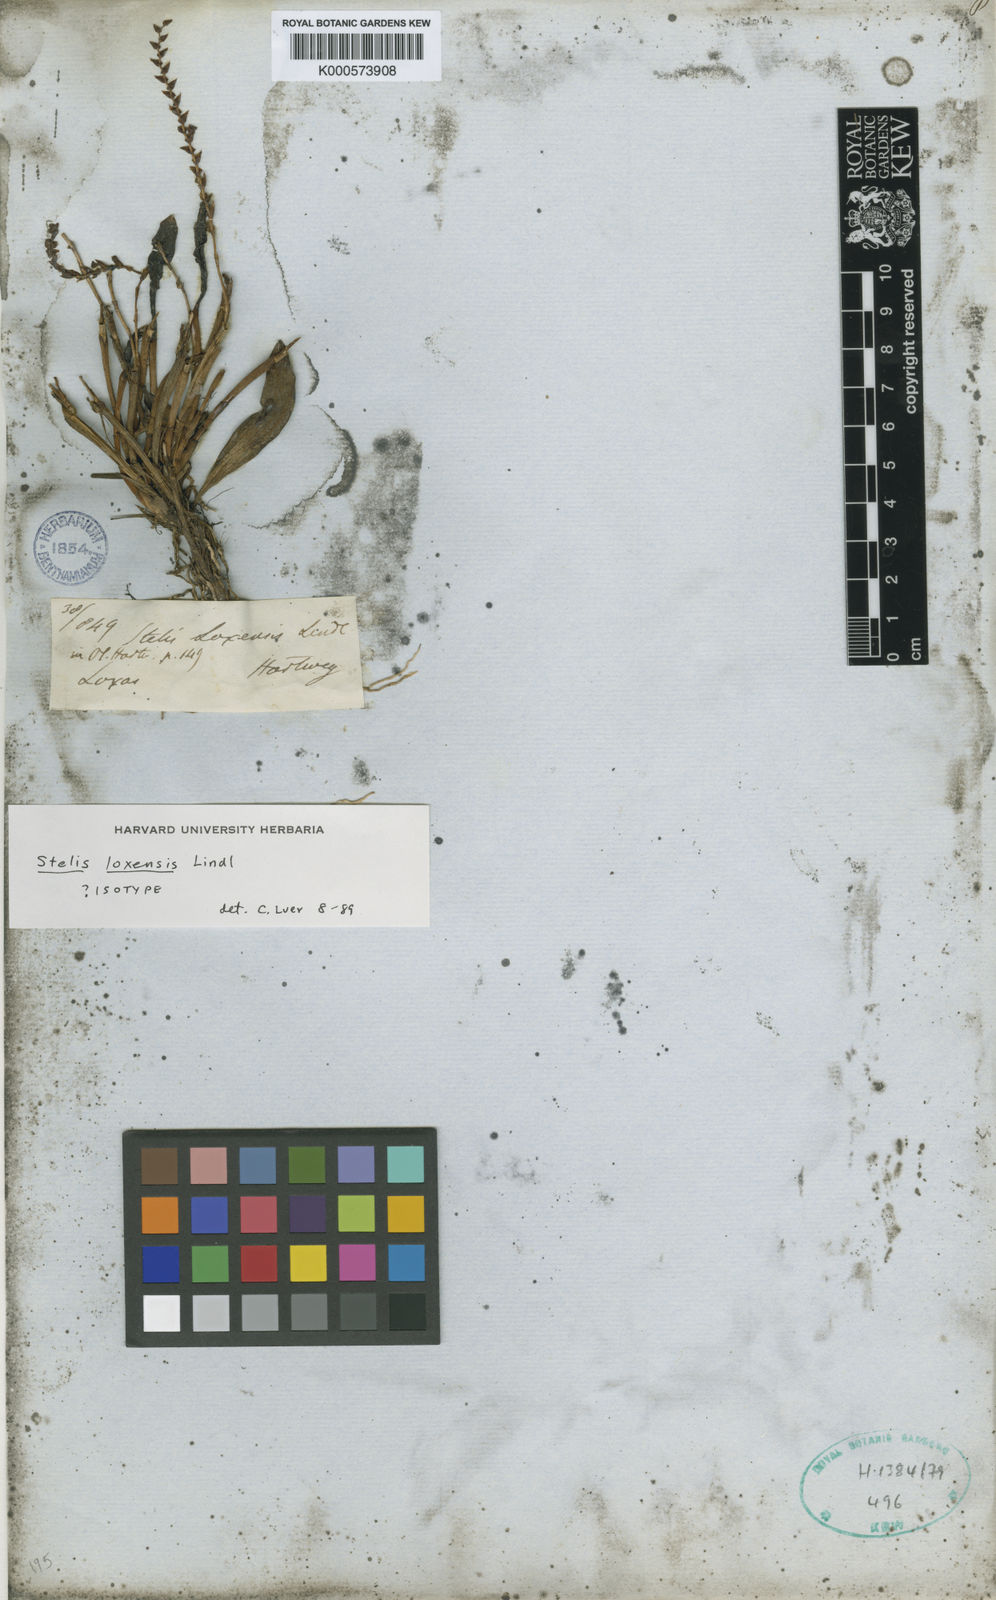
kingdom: Plantae
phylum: Tracheophyta
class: Liliopsida
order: Asparagales
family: Orchidaceae
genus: Stelis
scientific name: Stelis loxensis
